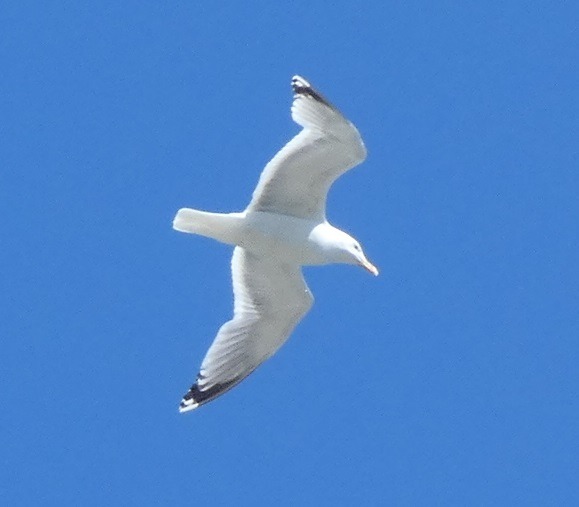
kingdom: Animalia
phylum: Chordata
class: Aves
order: Charadriiformes
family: Laridae
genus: Larus
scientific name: Larus argentatus
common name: Sølvmåge
